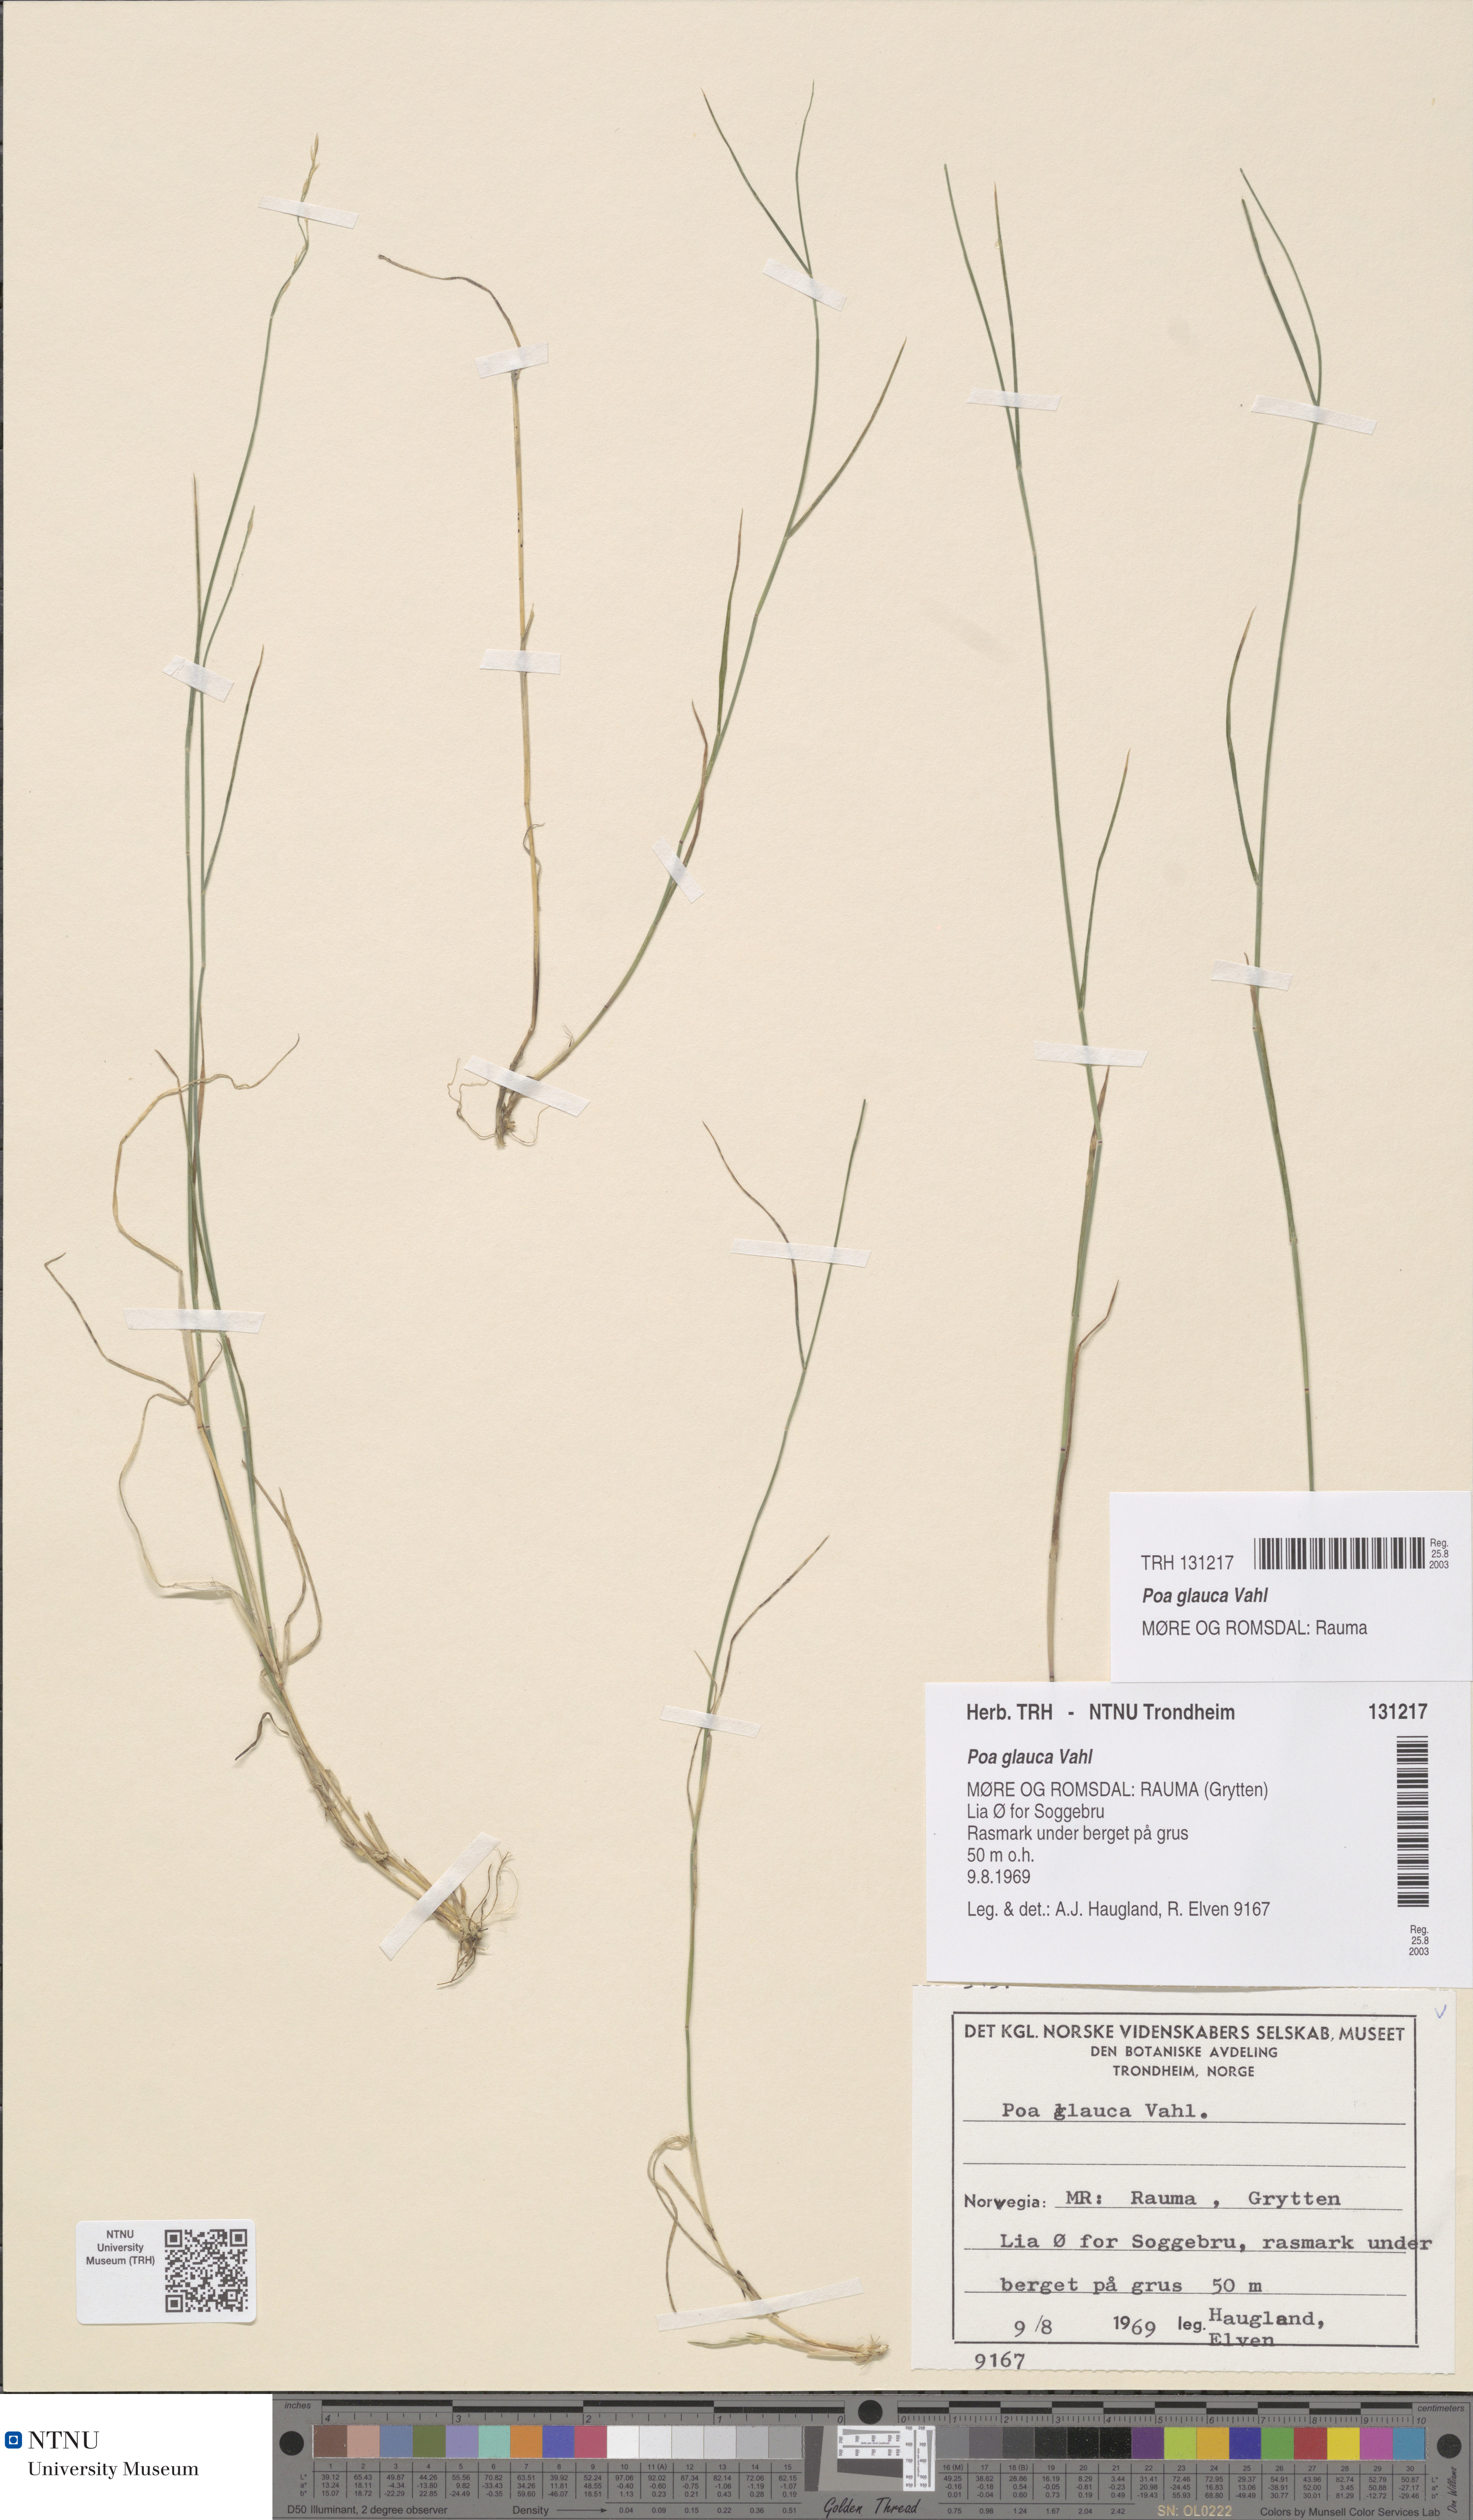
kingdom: Plantae
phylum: Tracheophyta
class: Liliopsida
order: Poales
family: Poaceae
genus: Poa
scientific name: Poa glauca
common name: Glaucous bluegrass
